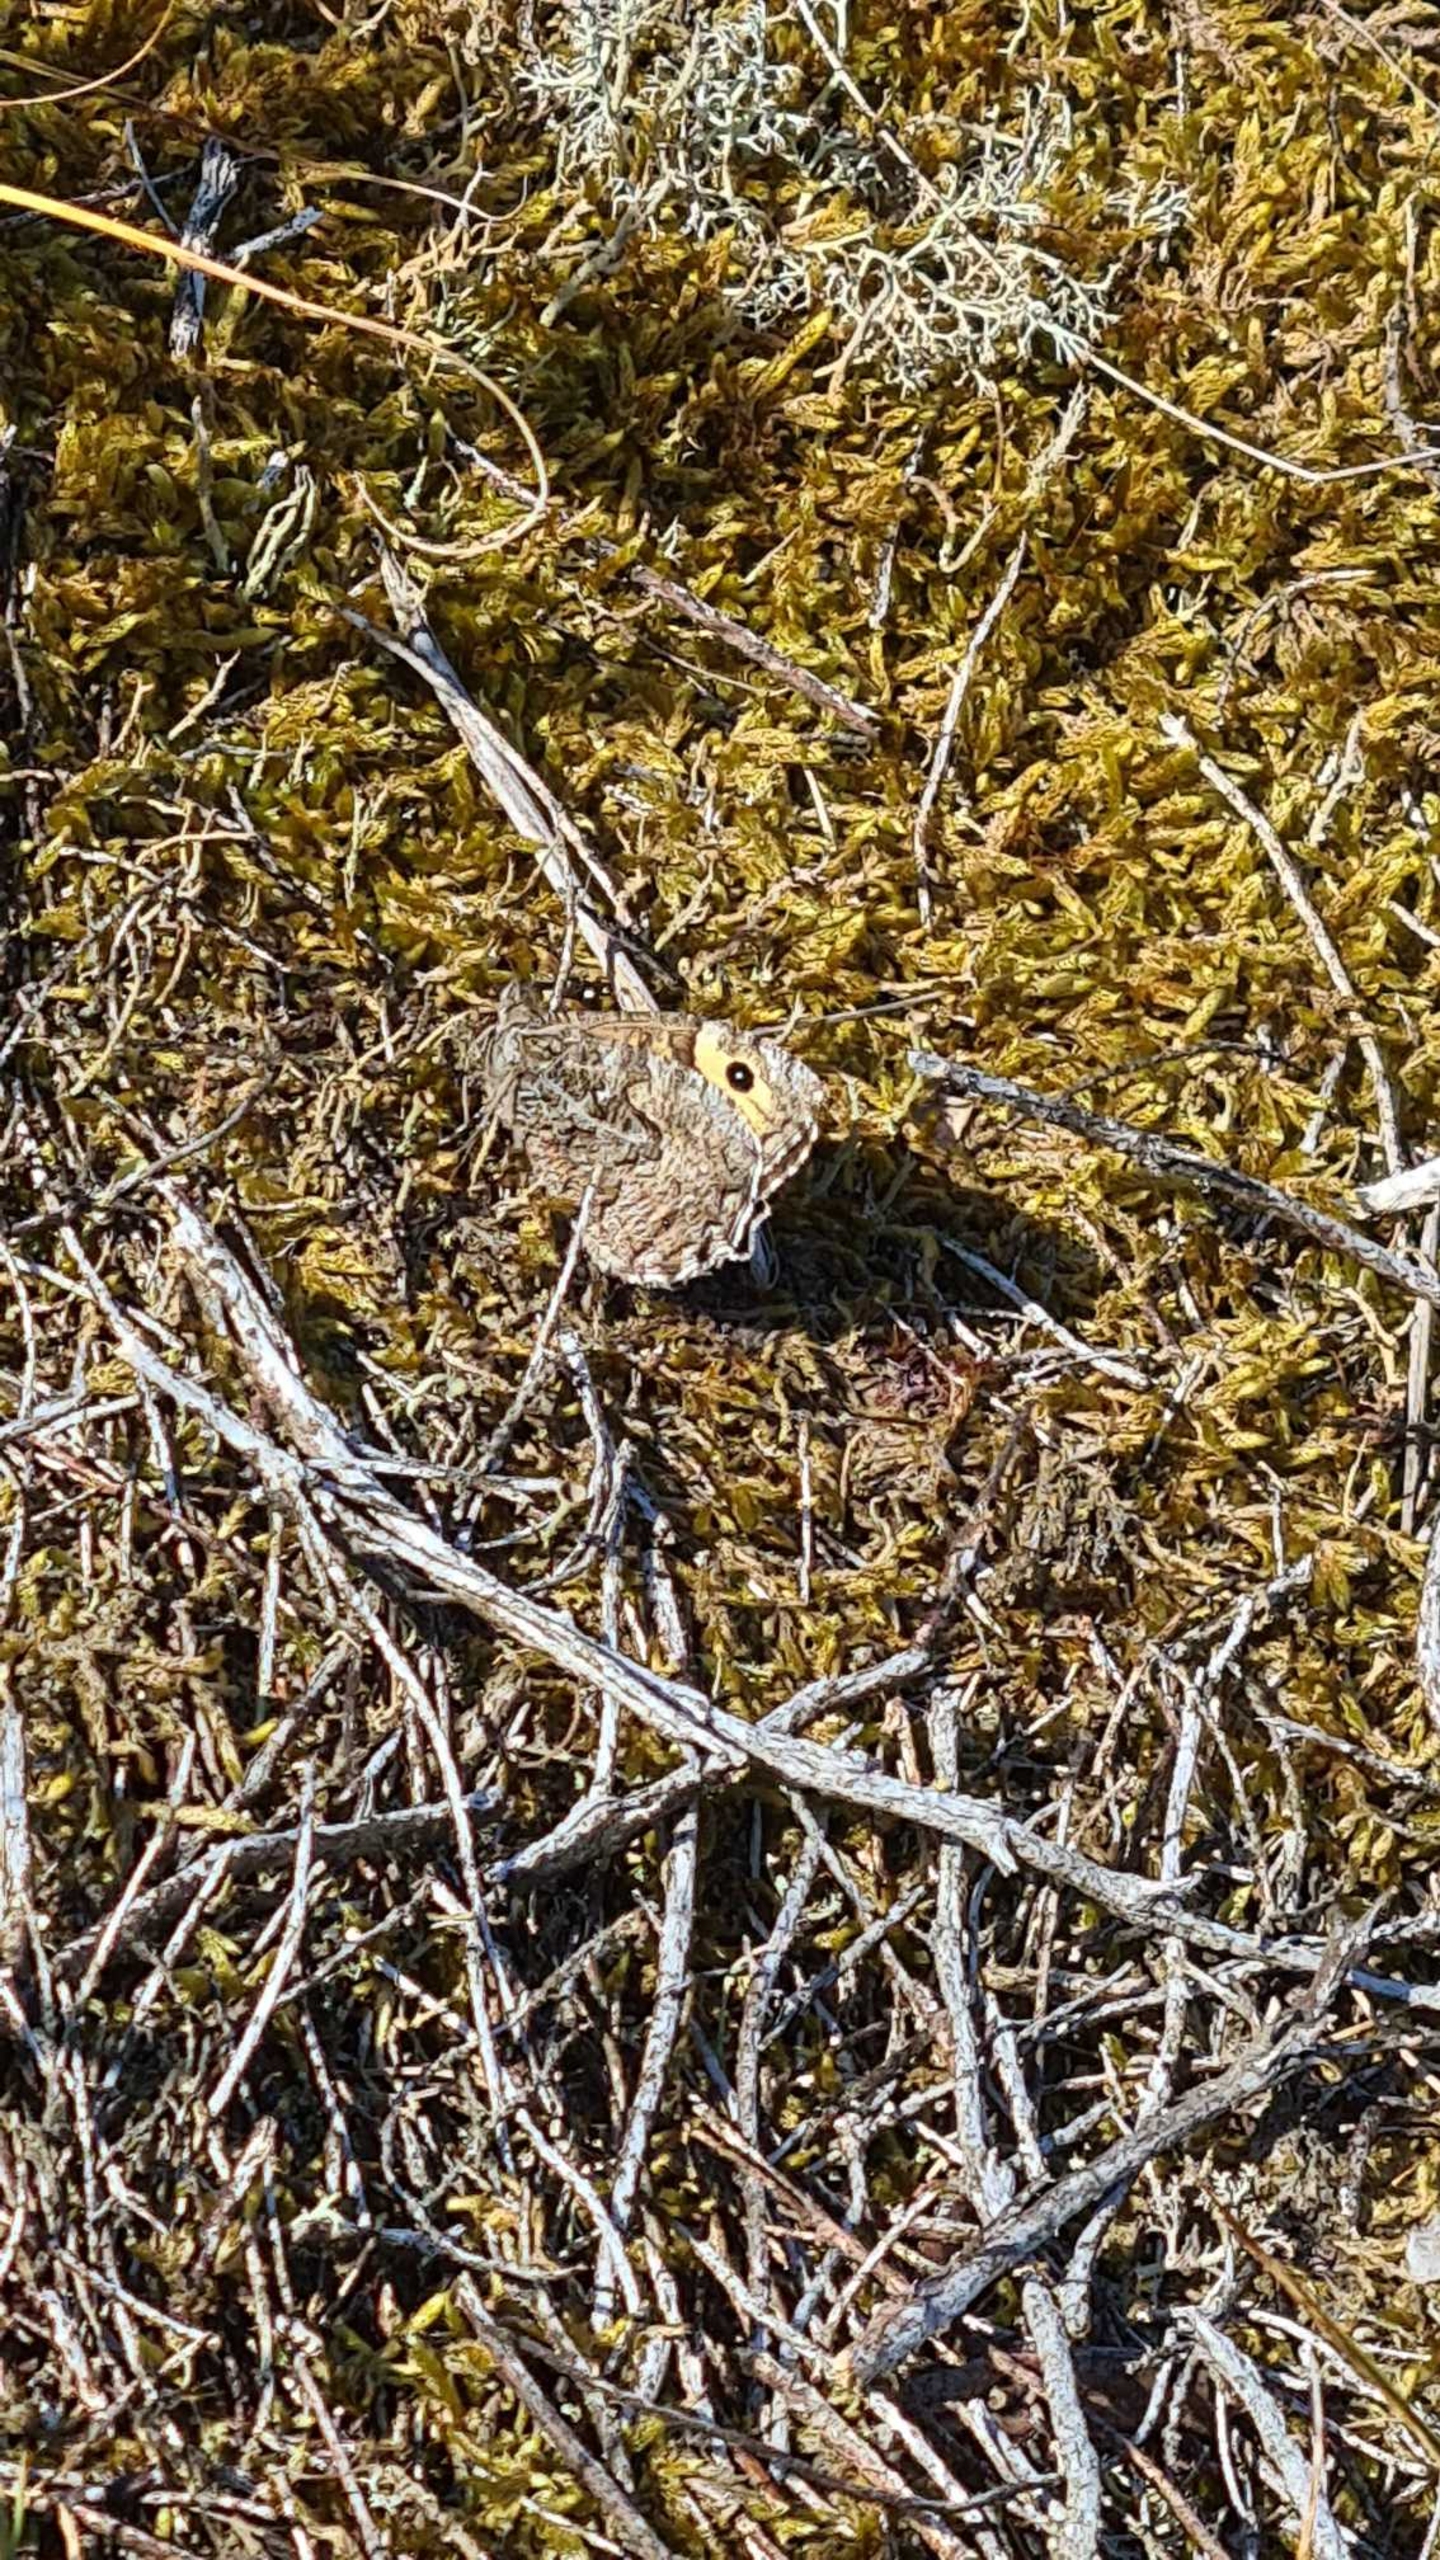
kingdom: Animalia
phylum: Arthropoda
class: Insecta
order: Lepidoptera
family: Nymphalidae
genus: Hipparchia
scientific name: Hipparchia semele
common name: Sandrandøje
